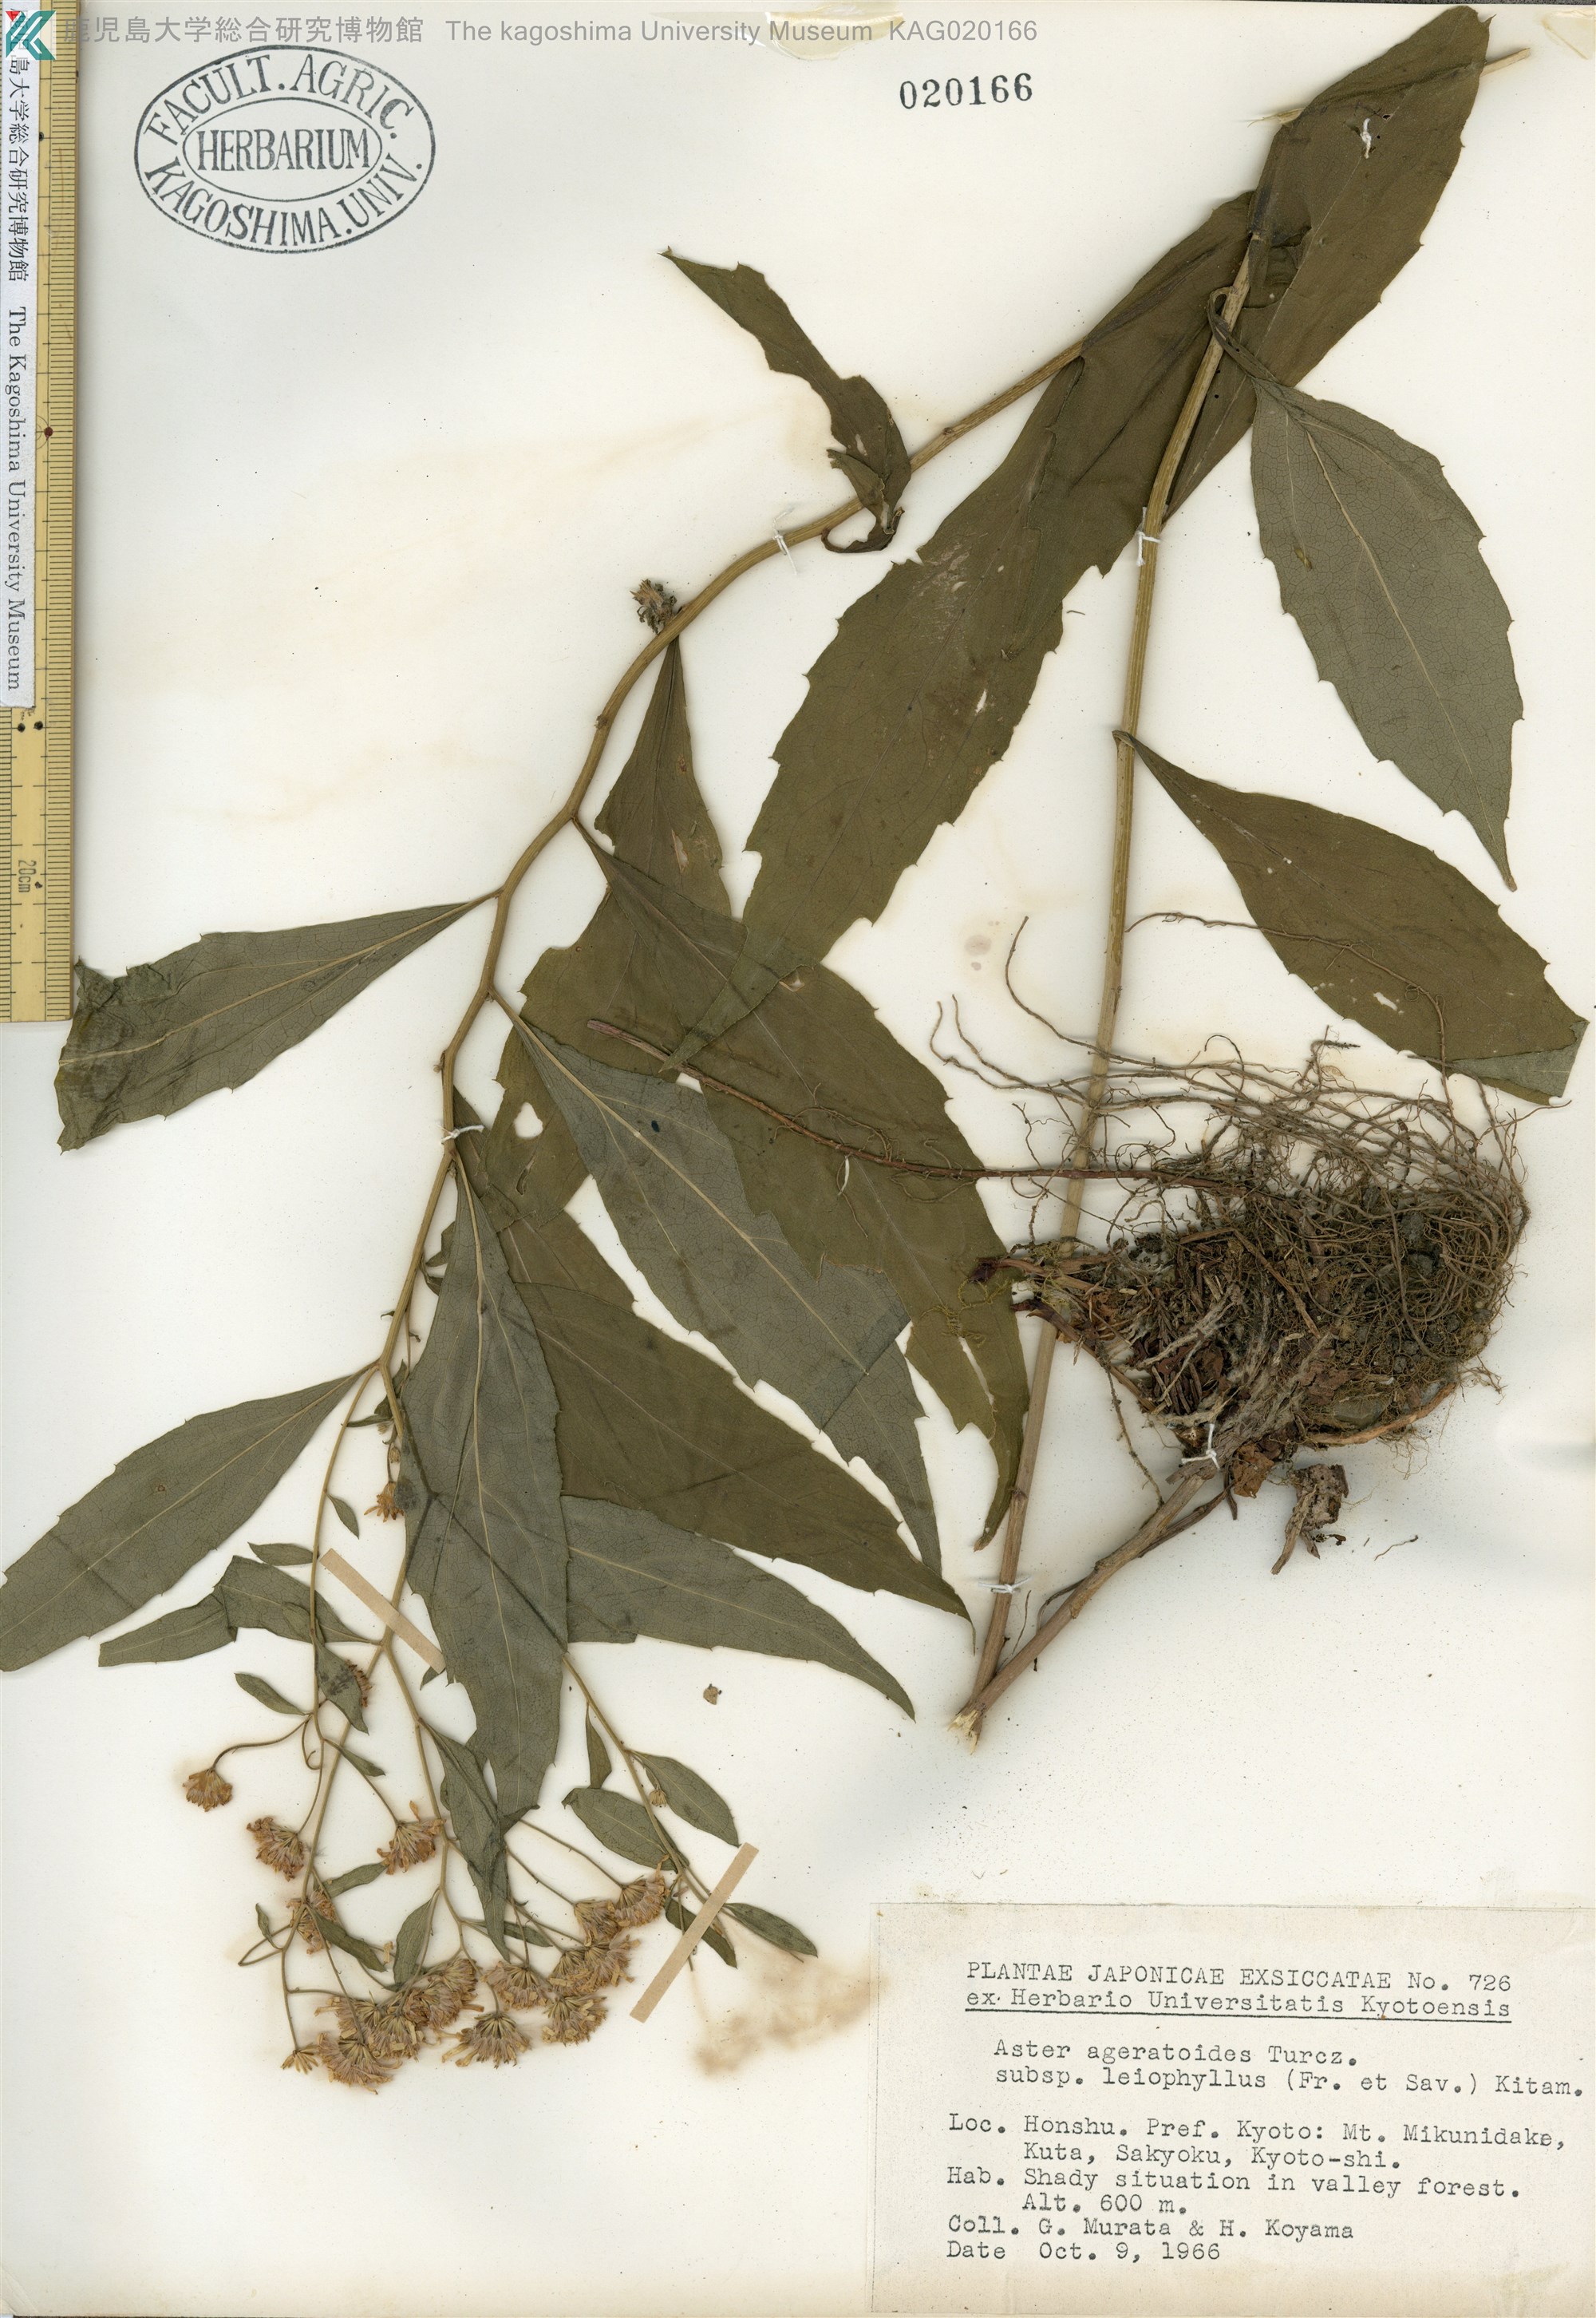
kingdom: Plantae
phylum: Tracheophyta
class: Magnoliopsida
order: Asterales
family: Asteraceae
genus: Aster
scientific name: Aster ageratoides
